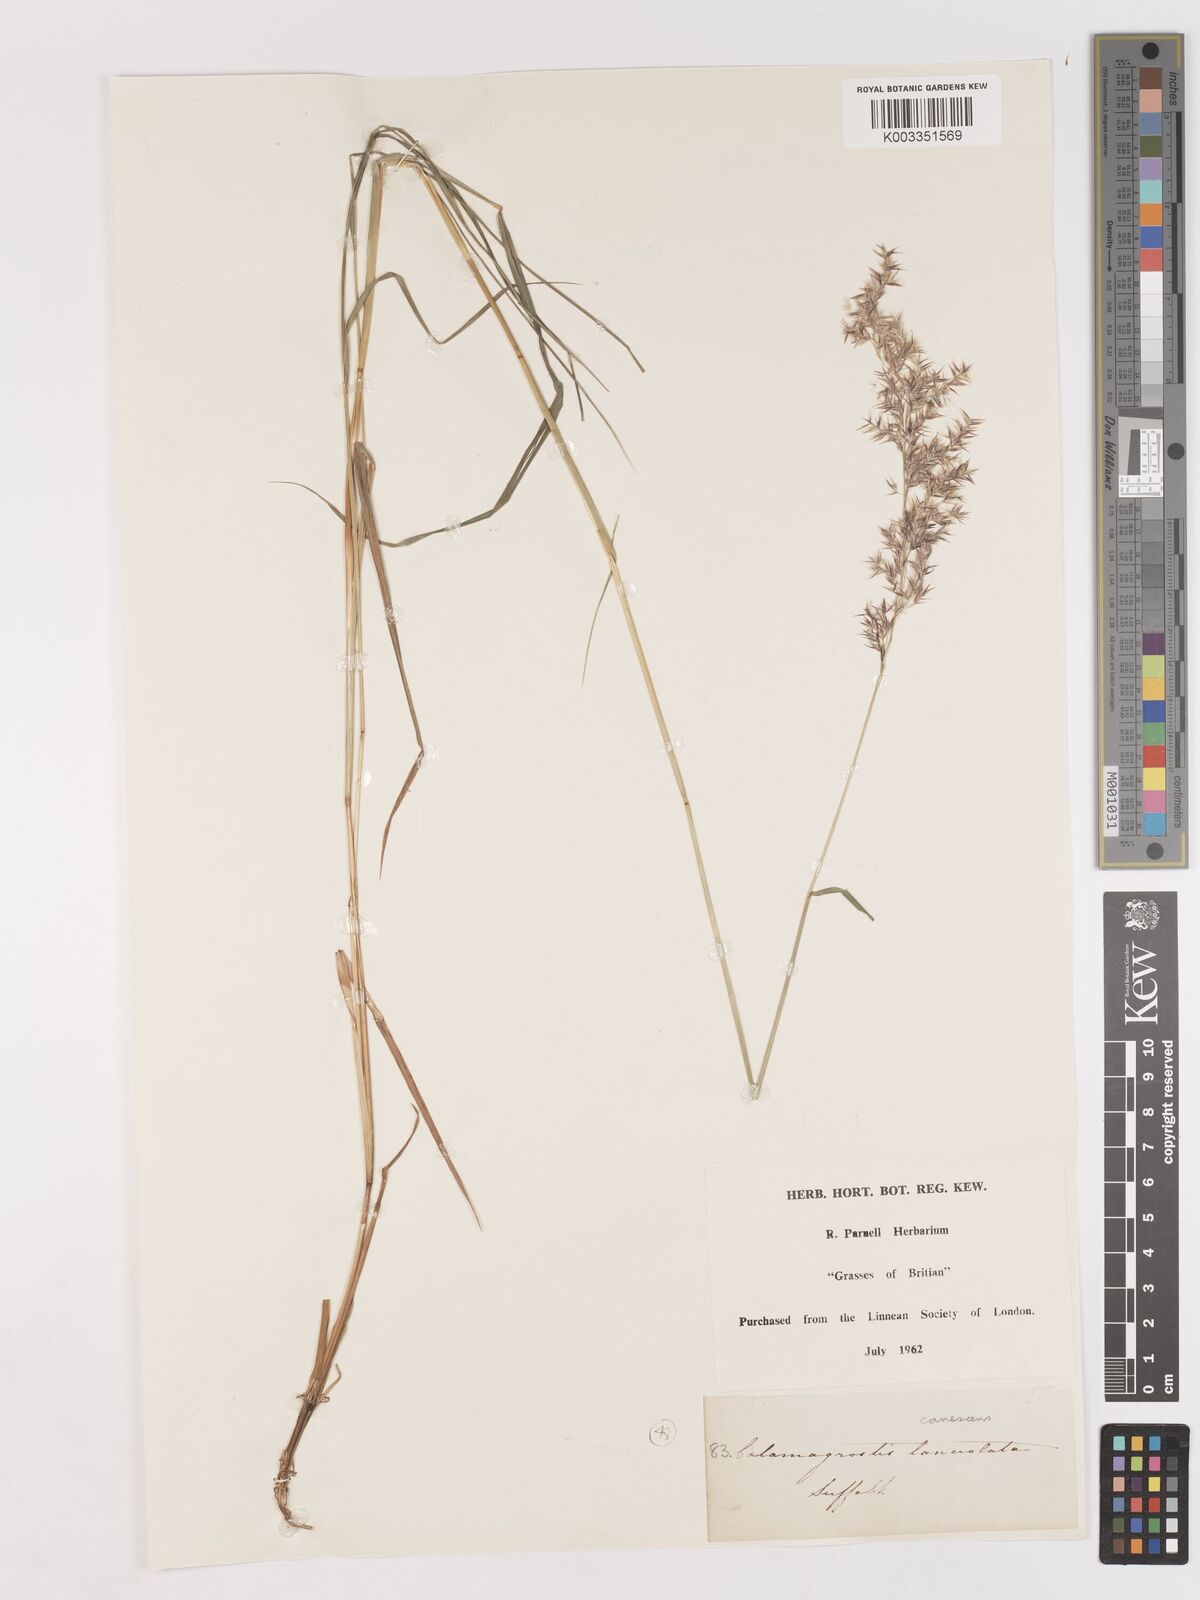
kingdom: Plantae
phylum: Tracheophyta
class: Liliopsida
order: Poales
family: Poaceae
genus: Calamagrostis
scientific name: Calamagrostis canescens
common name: Purple small-reed
